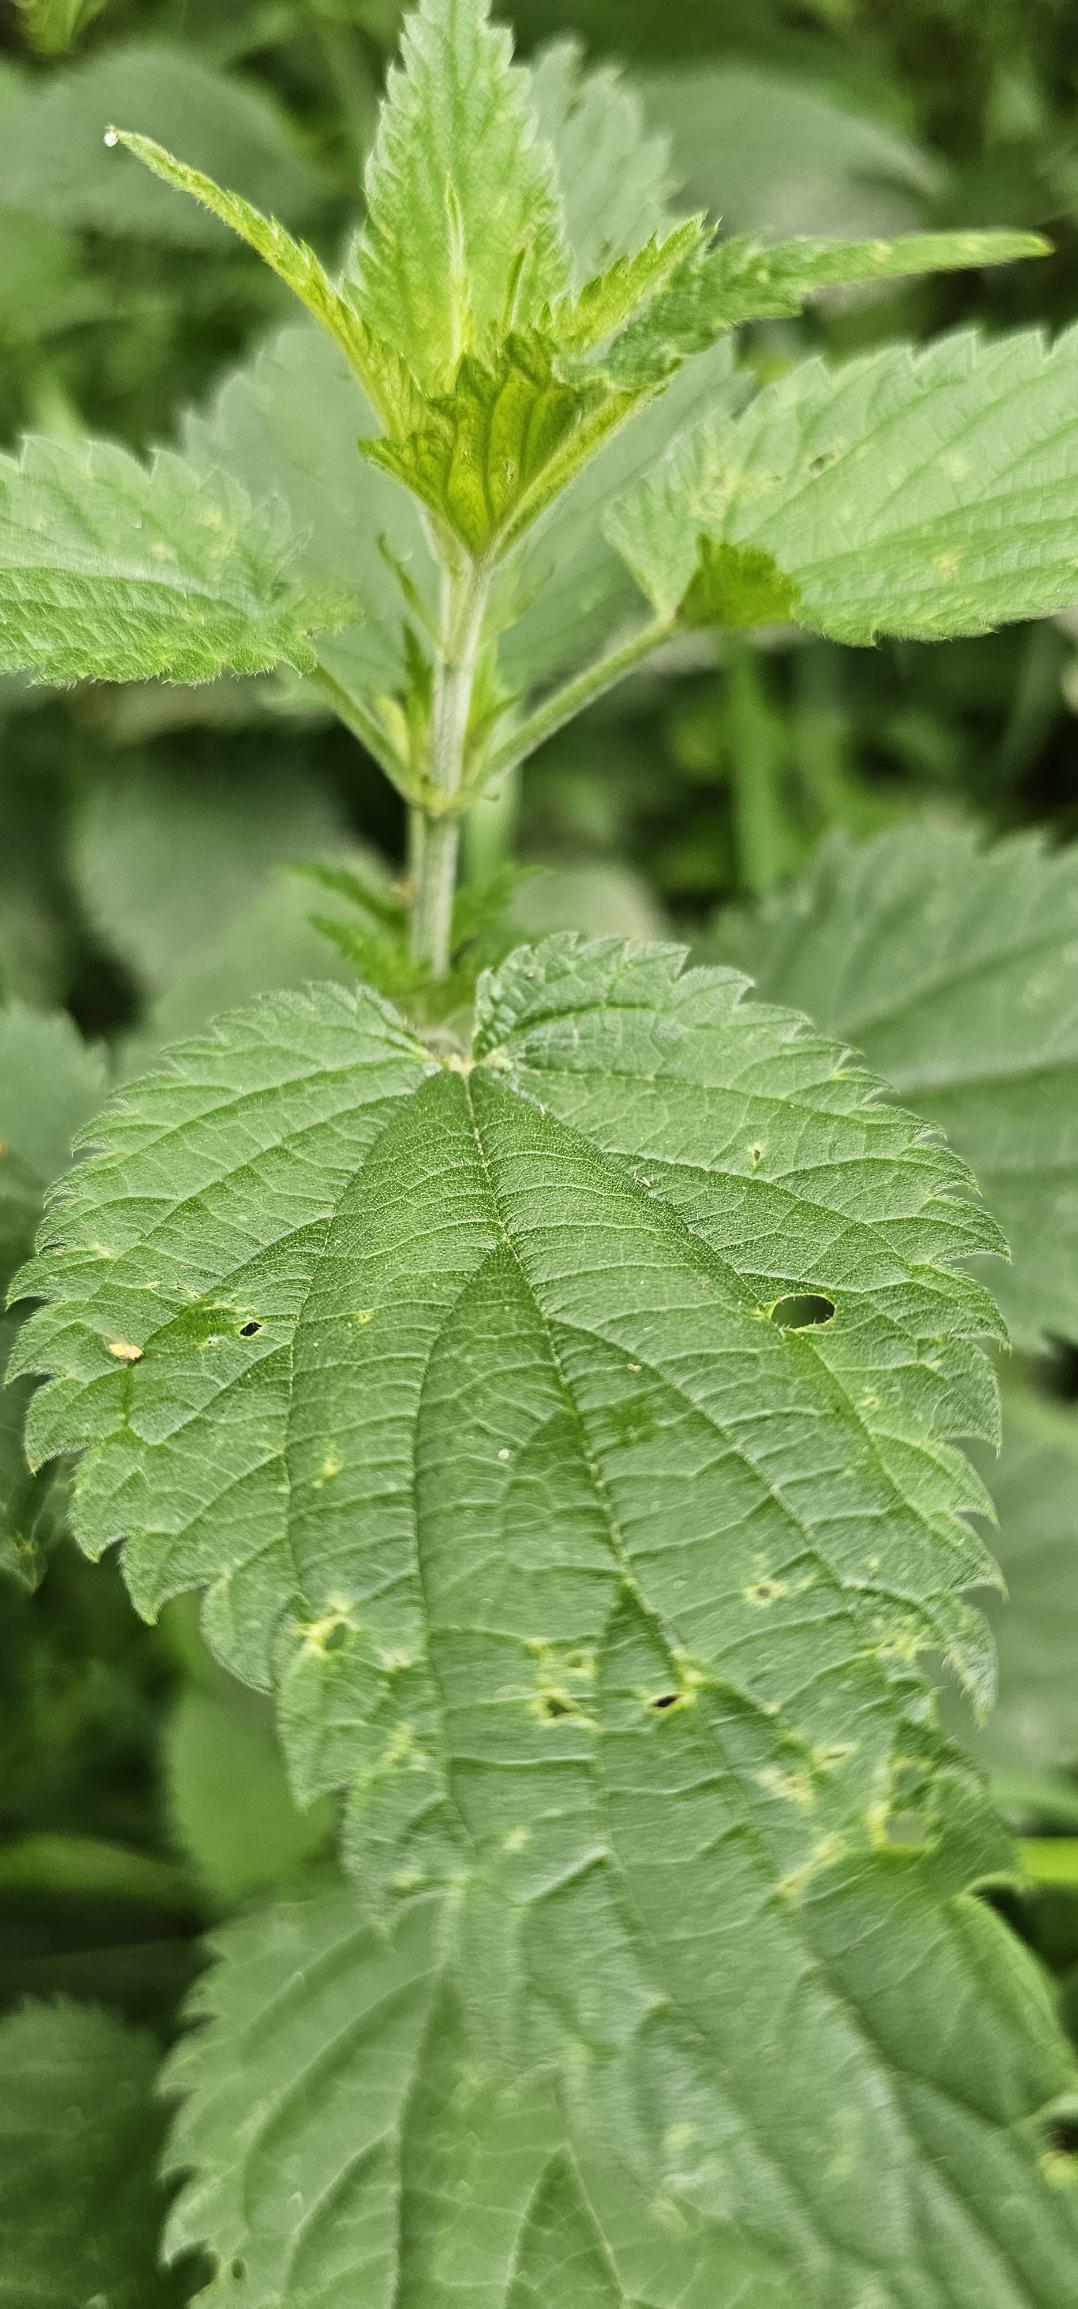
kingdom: Plantae
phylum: Tracheophyta
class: Magnoliopsida
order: Rosales
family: Urticaceae
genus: Urtica
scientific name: Urtica dioica
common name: Stor nælde
